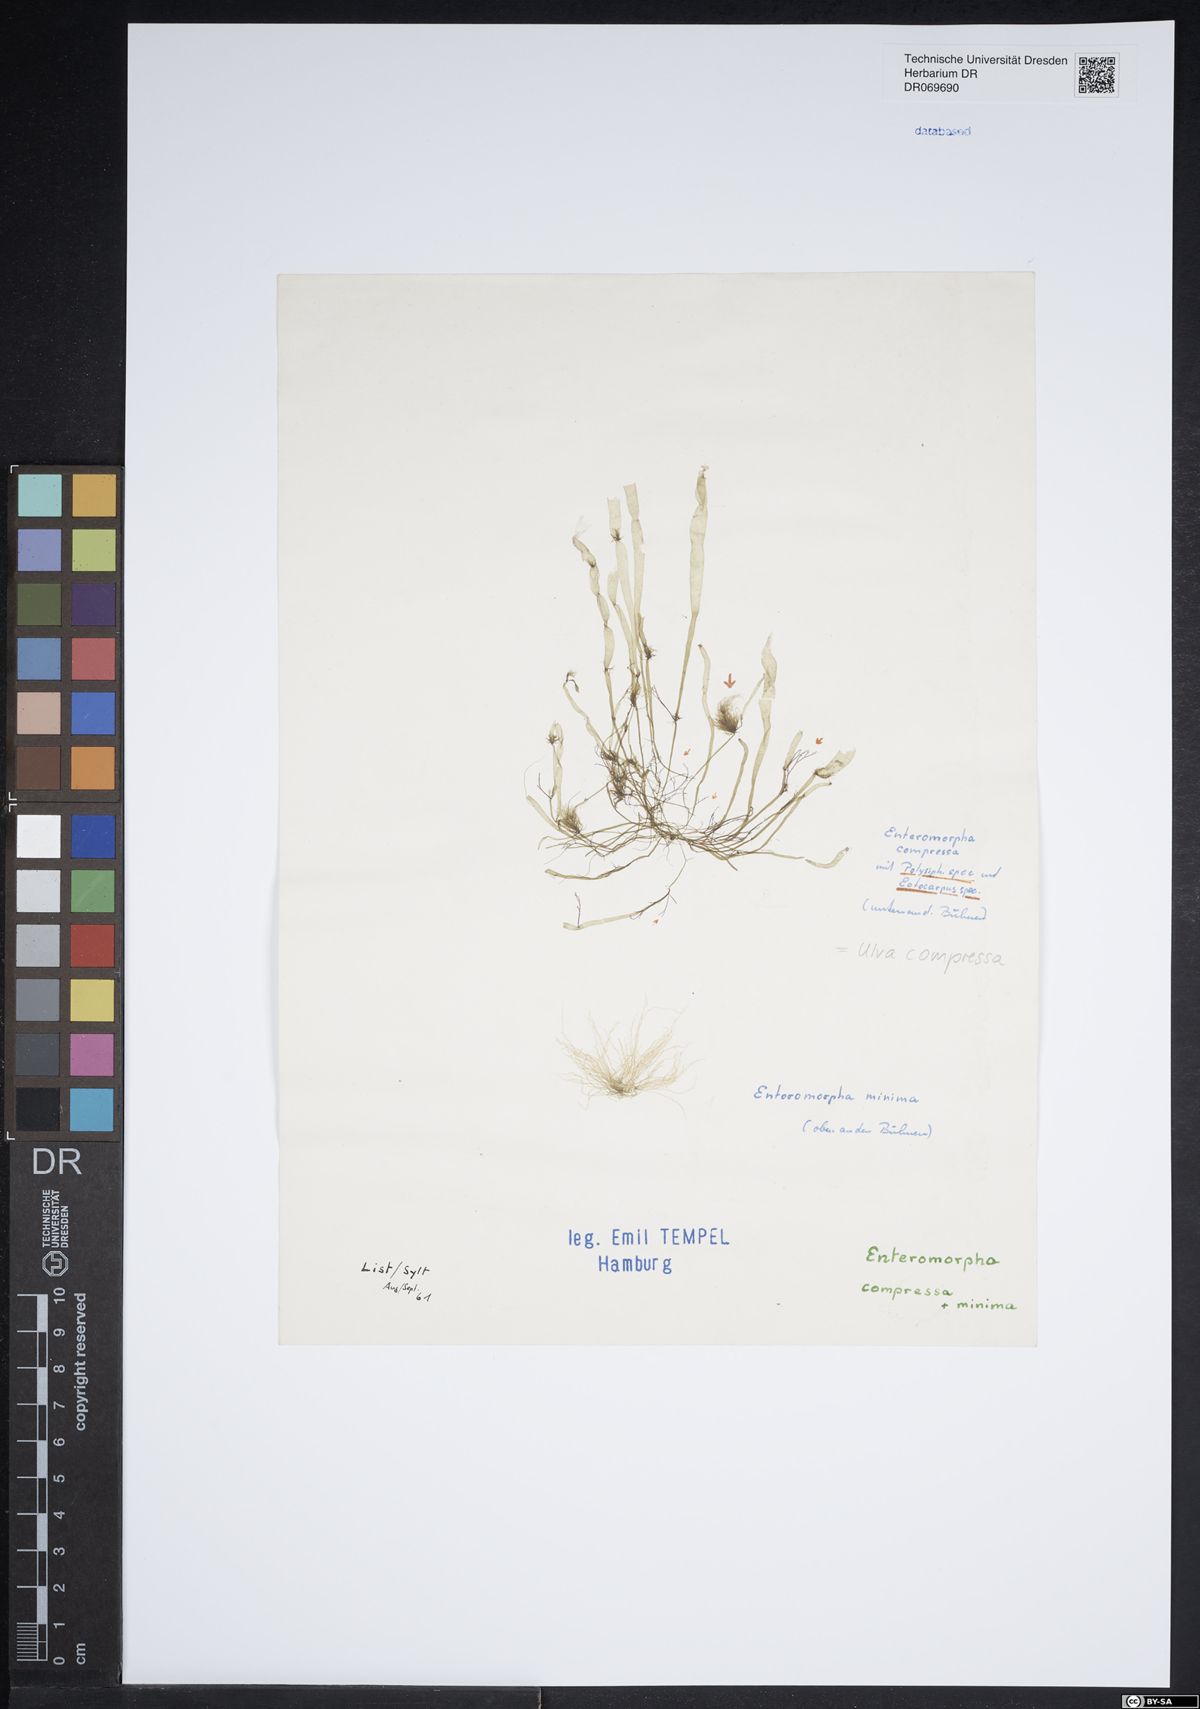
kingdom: Plantae
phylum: Chlorophyta
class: Ulvophyceae
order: Ulvales
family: Ulvaceae
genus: Ulva
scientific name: Ulva compressa
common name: Thread weed
